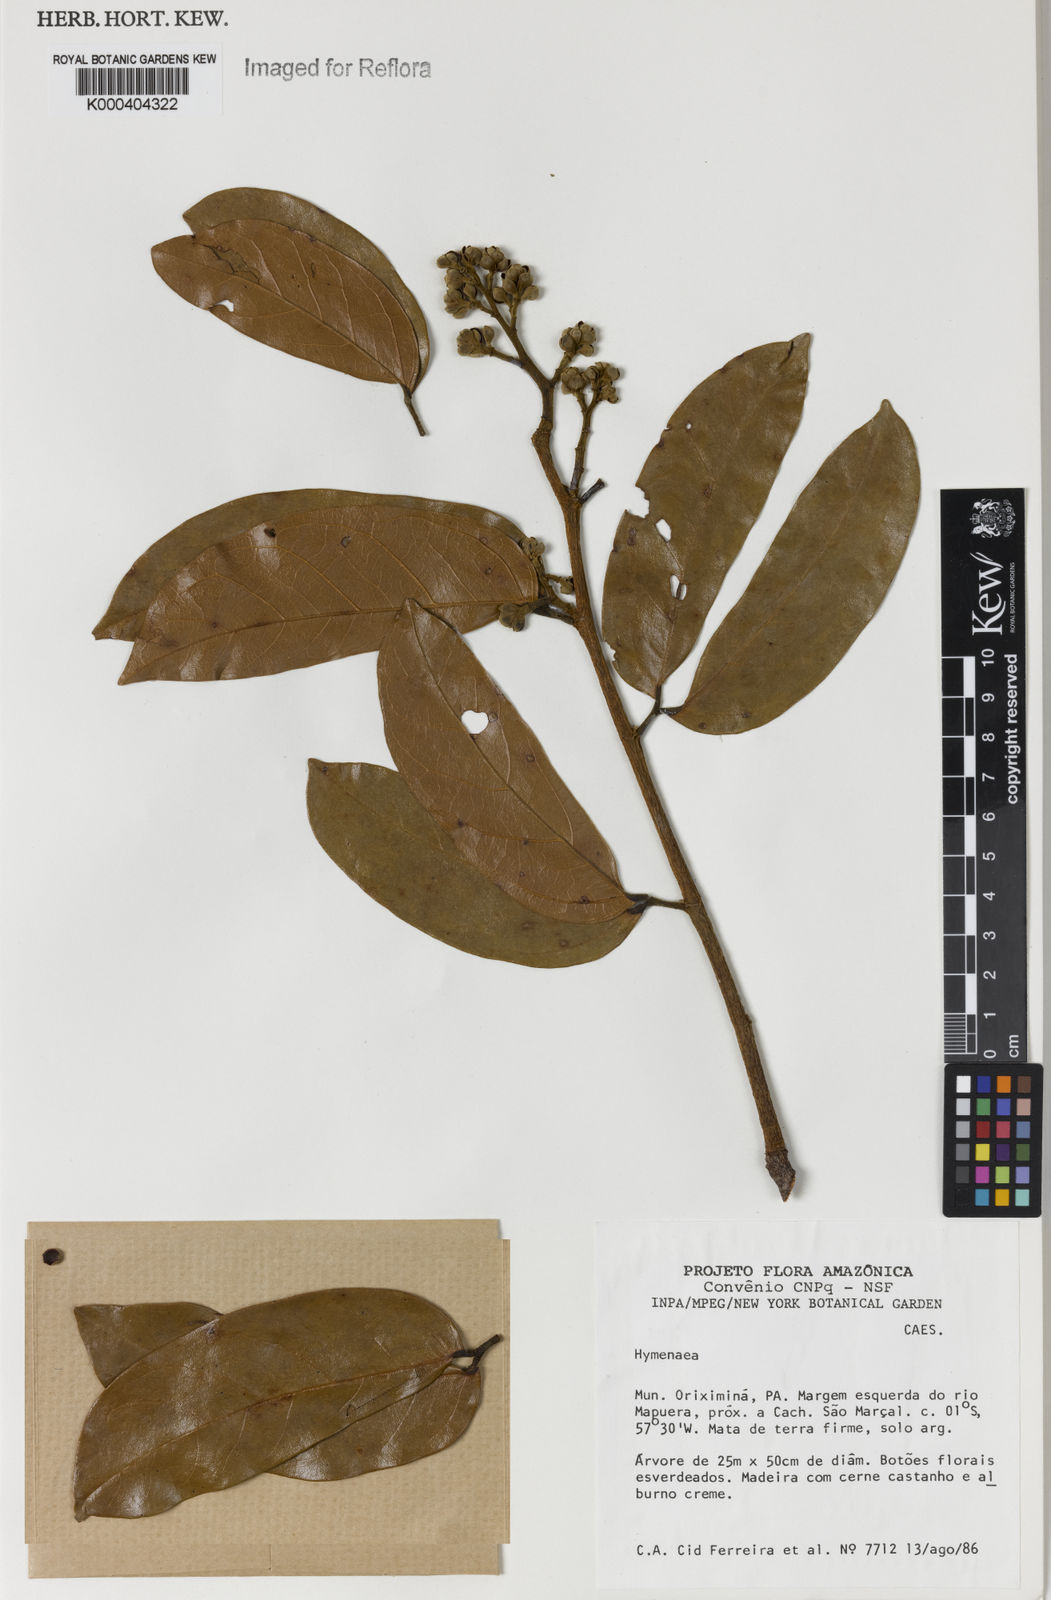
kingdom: Plantae
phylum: Tracheophyta
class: Magnoliopsida
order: Fabales
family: Fabaceae
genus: Hymenaea
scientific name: Hymenaea
